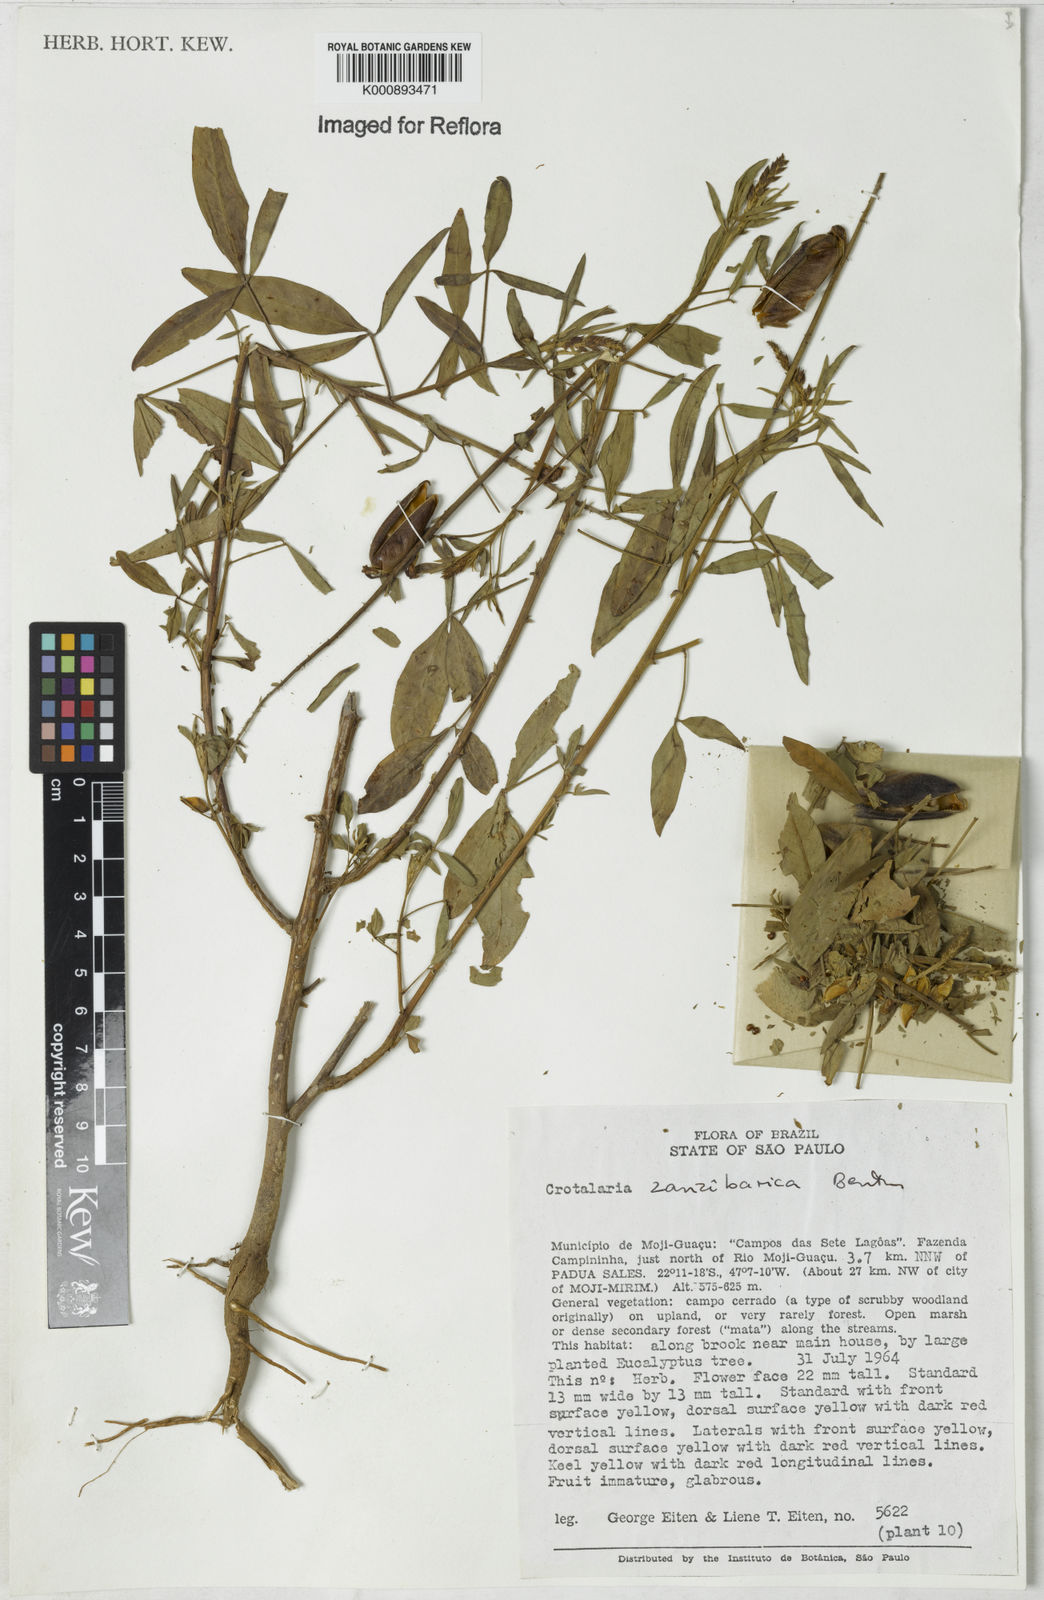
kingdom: Plantae
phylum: Tracheophyta
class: Magnoliopsida
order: Fabales
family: Fabaceae
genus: Crotalaria
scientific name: Crotalaria trichotoma
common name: West indian rattlebox
